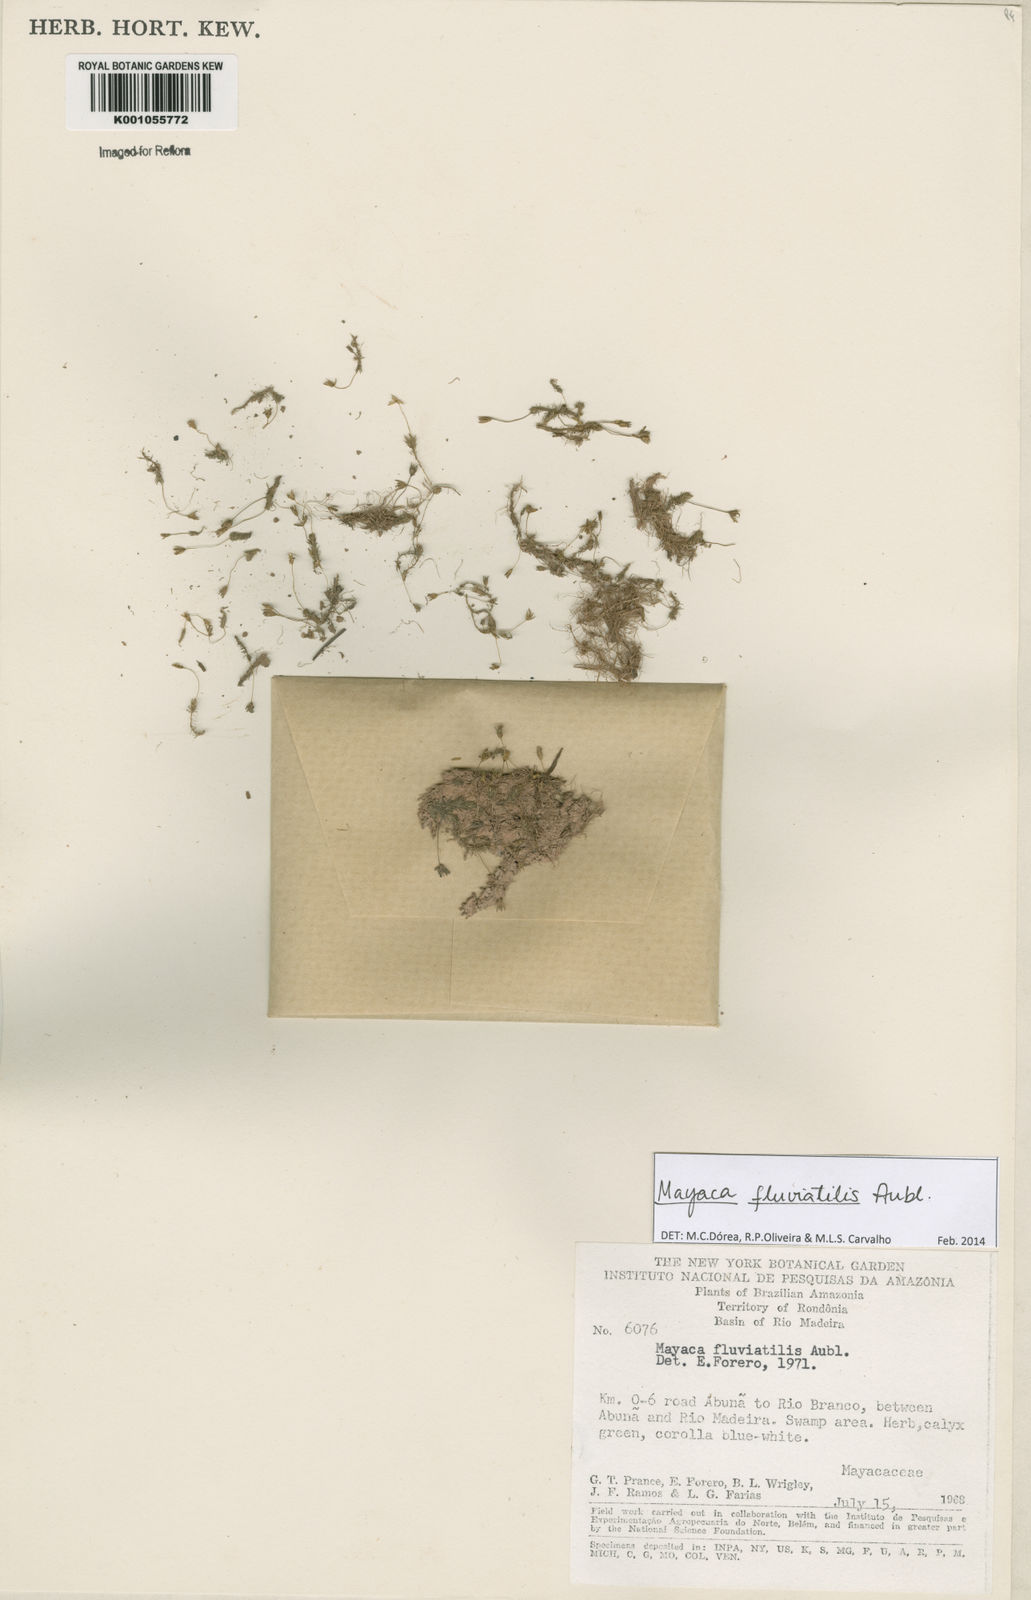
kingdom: Plantae
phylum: Tracheophyta
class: Liliopsida
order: Poales
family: Mayacaceae
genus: Mayaca
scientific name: Mayaca
